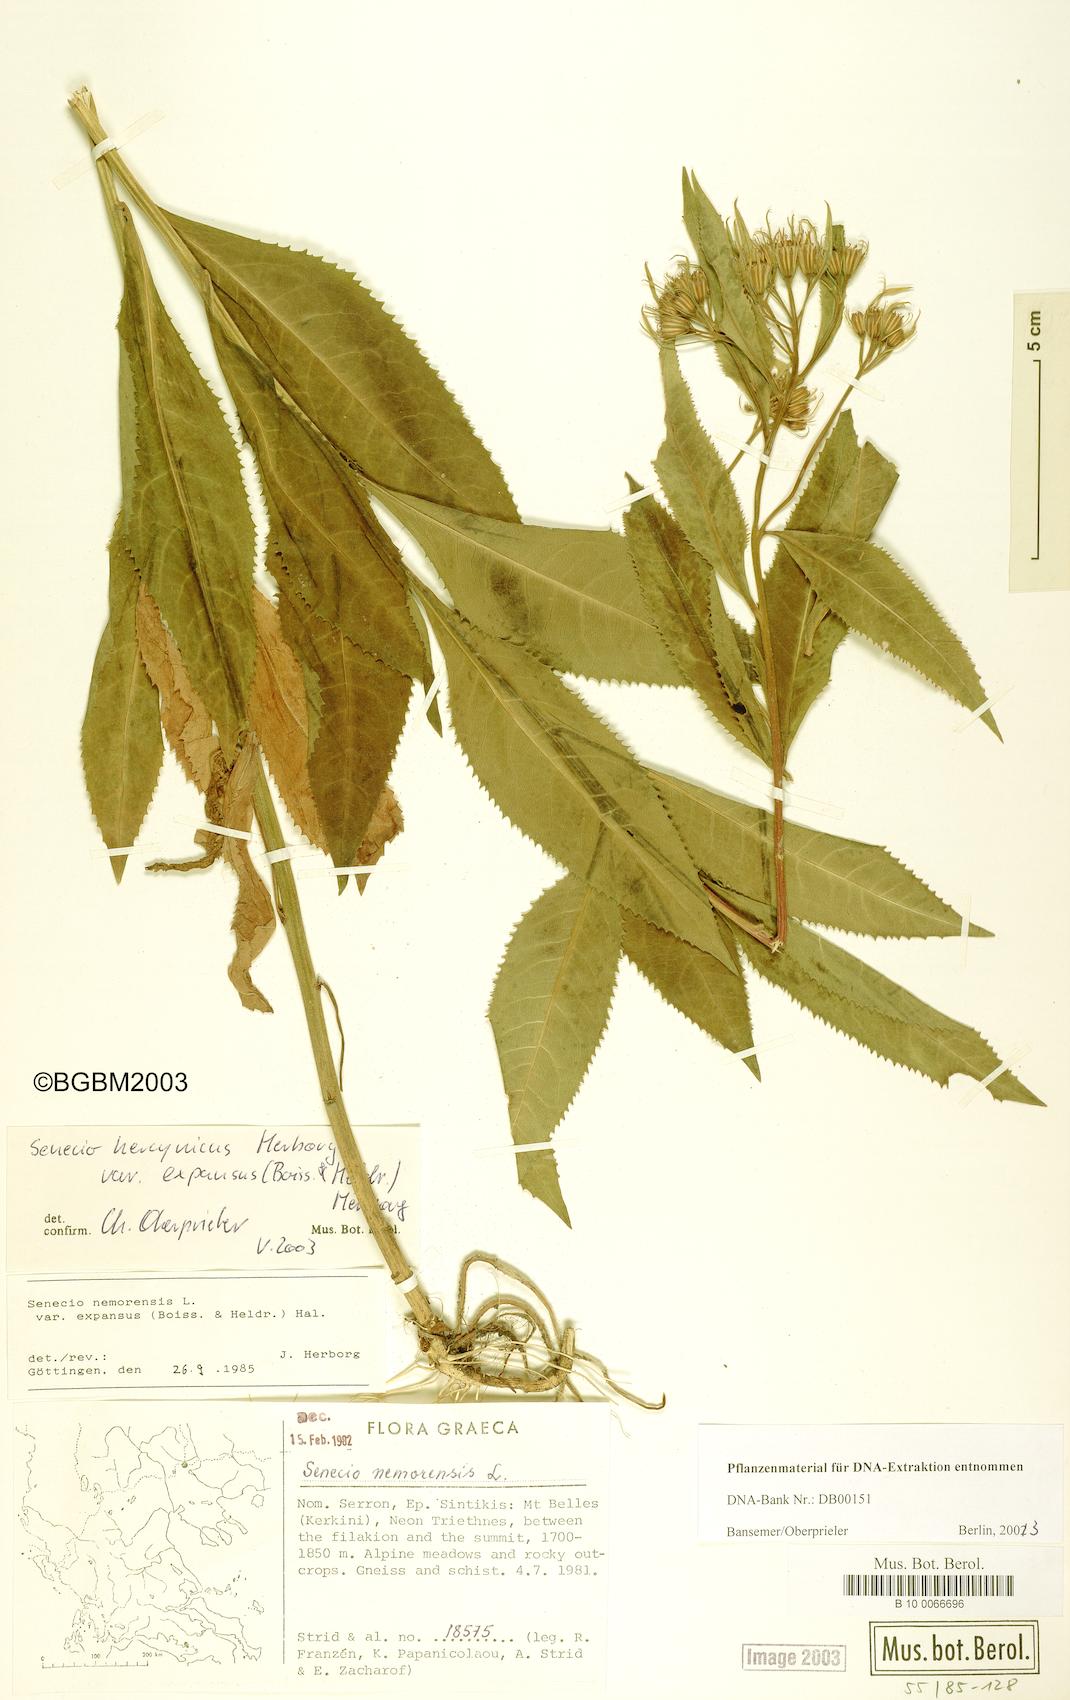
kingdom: Plantae
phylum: Tracheophyta
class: Magnoliopsida
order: Asterales
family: Asteraceae
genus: Senecio
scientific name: Senecio hercynicus
